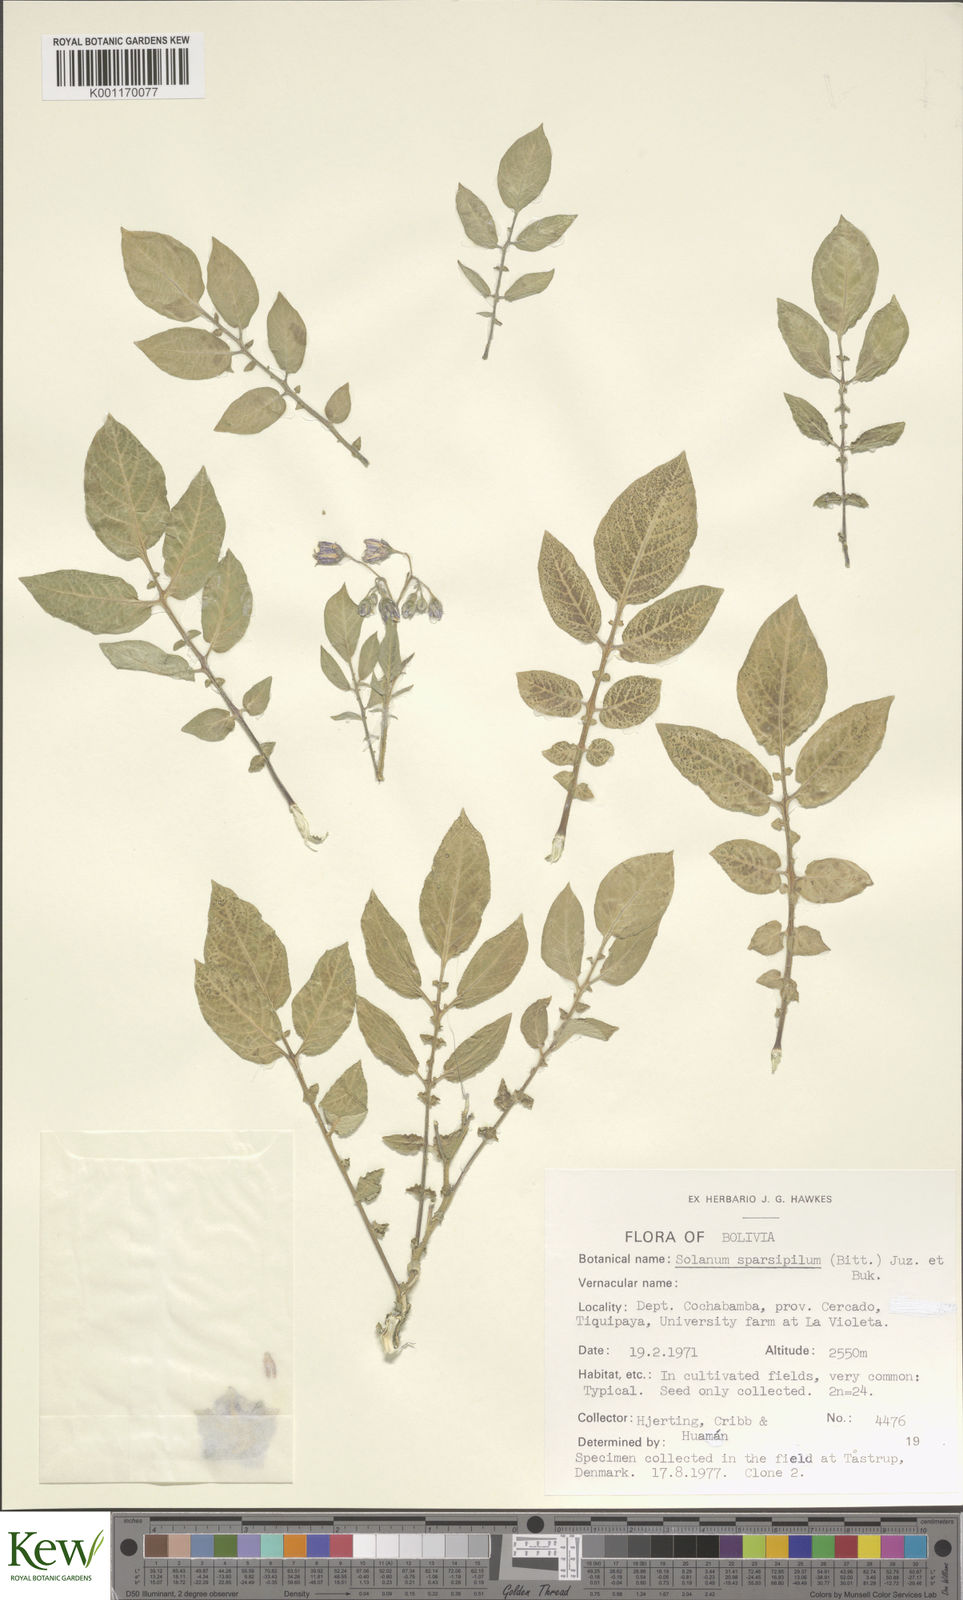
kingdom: Plantae
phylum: Tracheophyta
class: Magnoliopsida
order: Solanales
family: Solanaceae
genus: Solanum
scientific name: Solanum brevicaule
